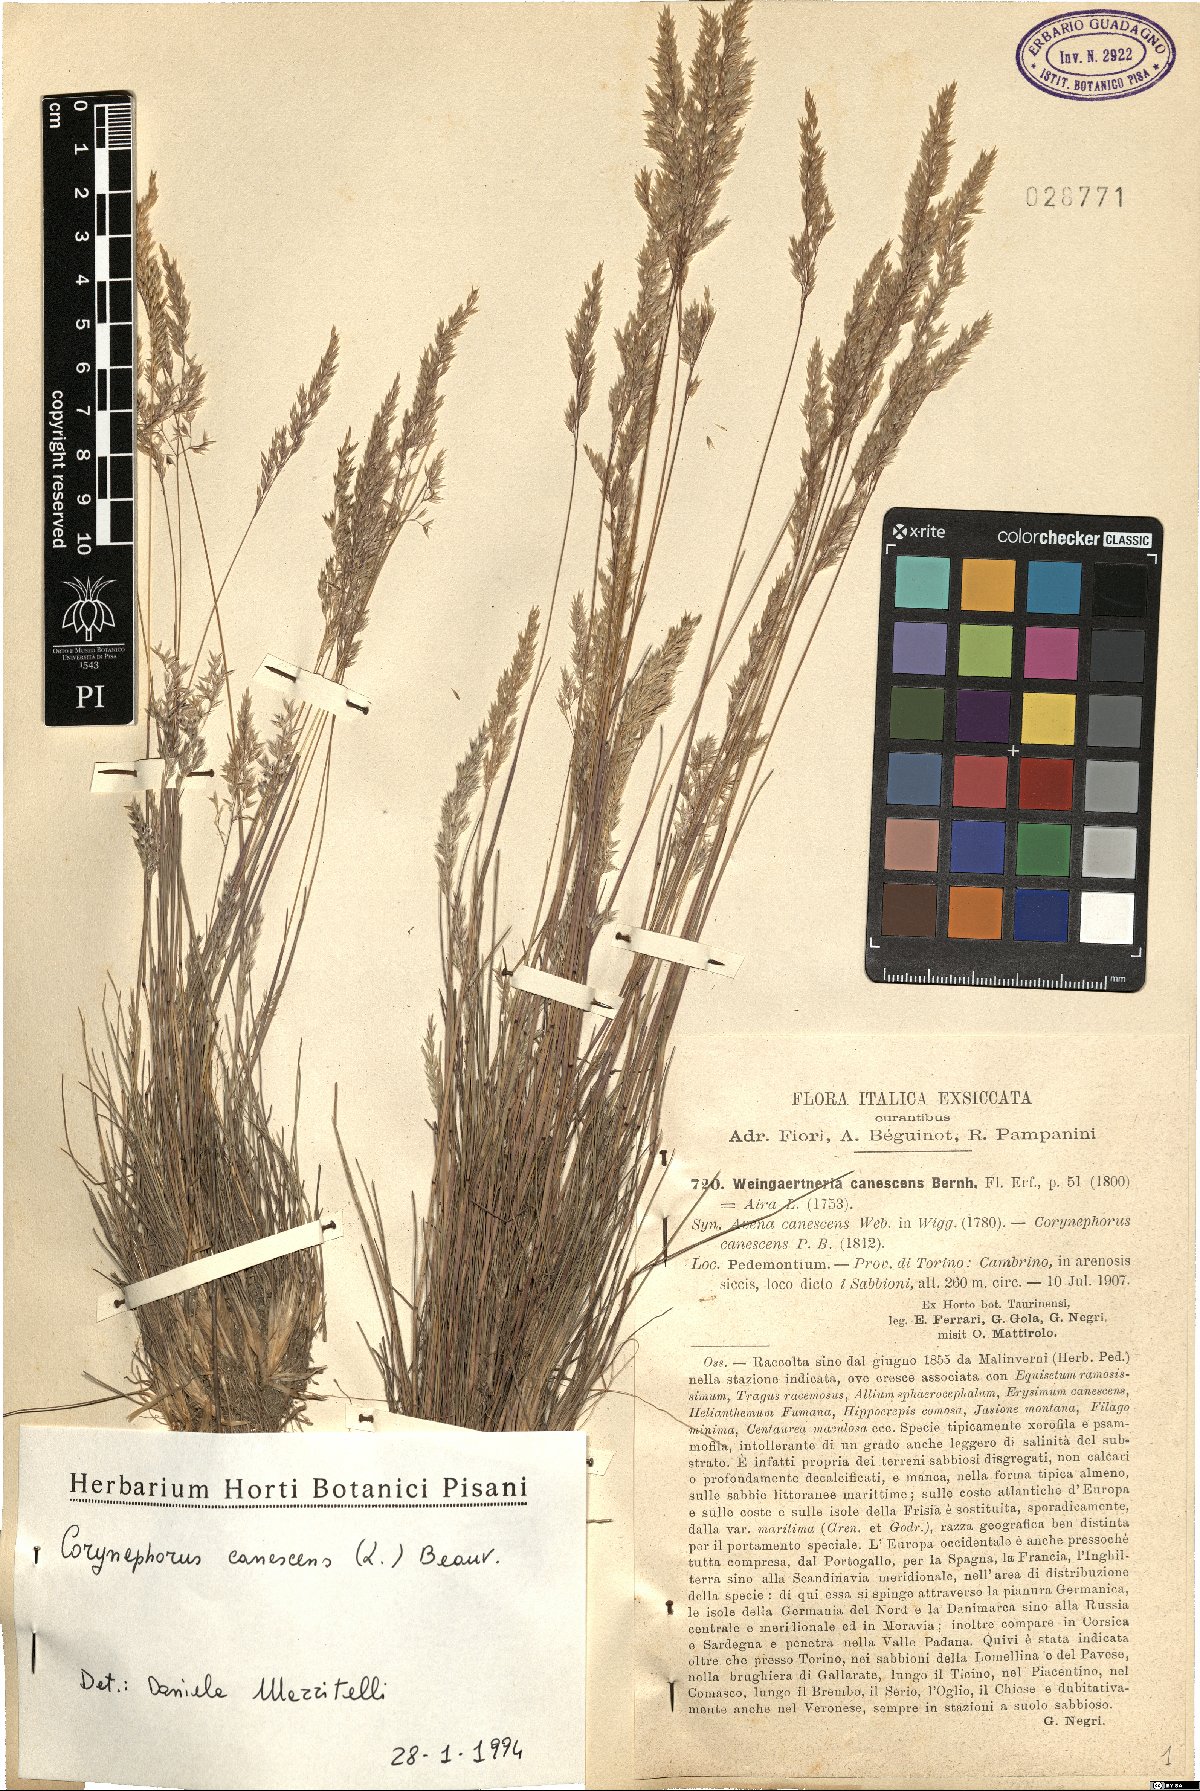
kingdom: Plantae
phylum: Tracheophyta
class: Liliopsida
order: Poales
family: Poaceae
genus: Corynephorus
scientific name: Corynephorus canescens
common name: Grey hair-grass
